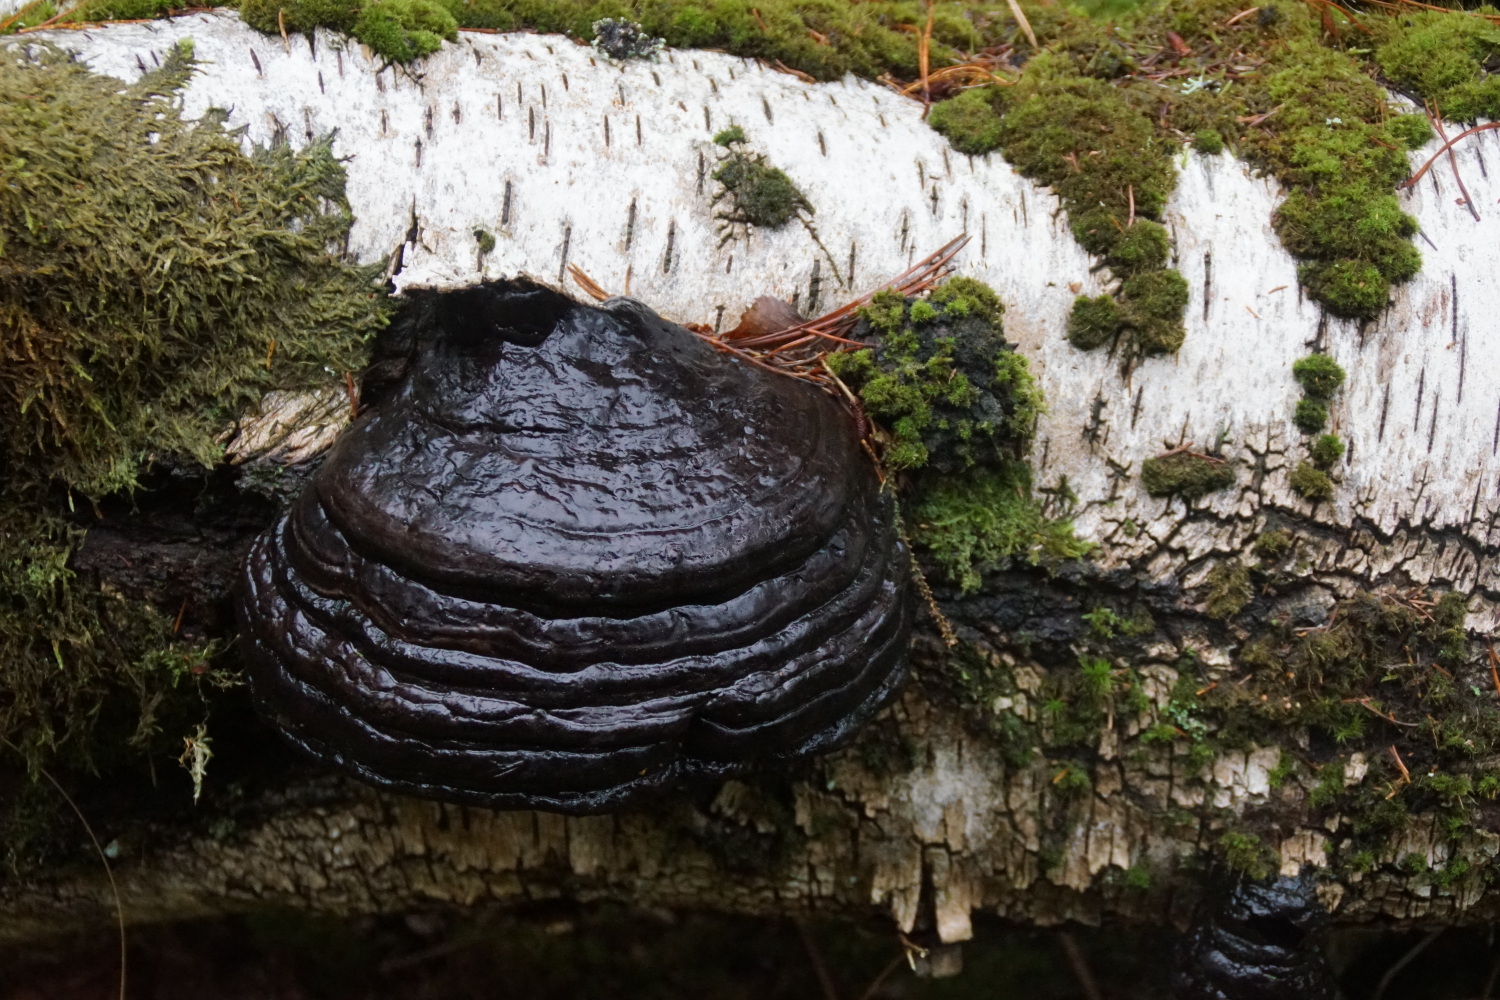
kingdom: Fungi
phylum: Basidiomycota
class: Agaricomycetes
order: Polyporales
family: Polyporaceae
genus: Fomes
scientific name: Fomes fomentarius
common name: tøndersvamp
